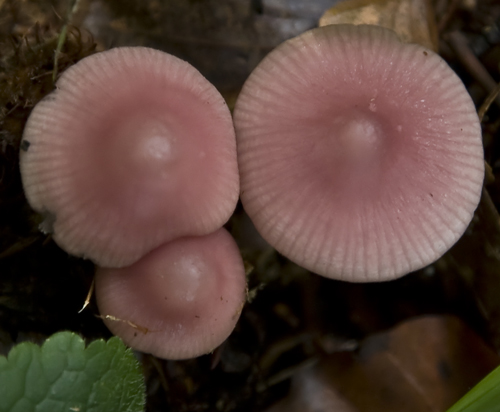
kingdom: Fungi
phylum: Basidiomycota
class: Agaricomycetes
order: Agaricales
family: Mycenaceae
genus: Mycena
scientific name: Mycena rosea
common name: rosa huesvamp
